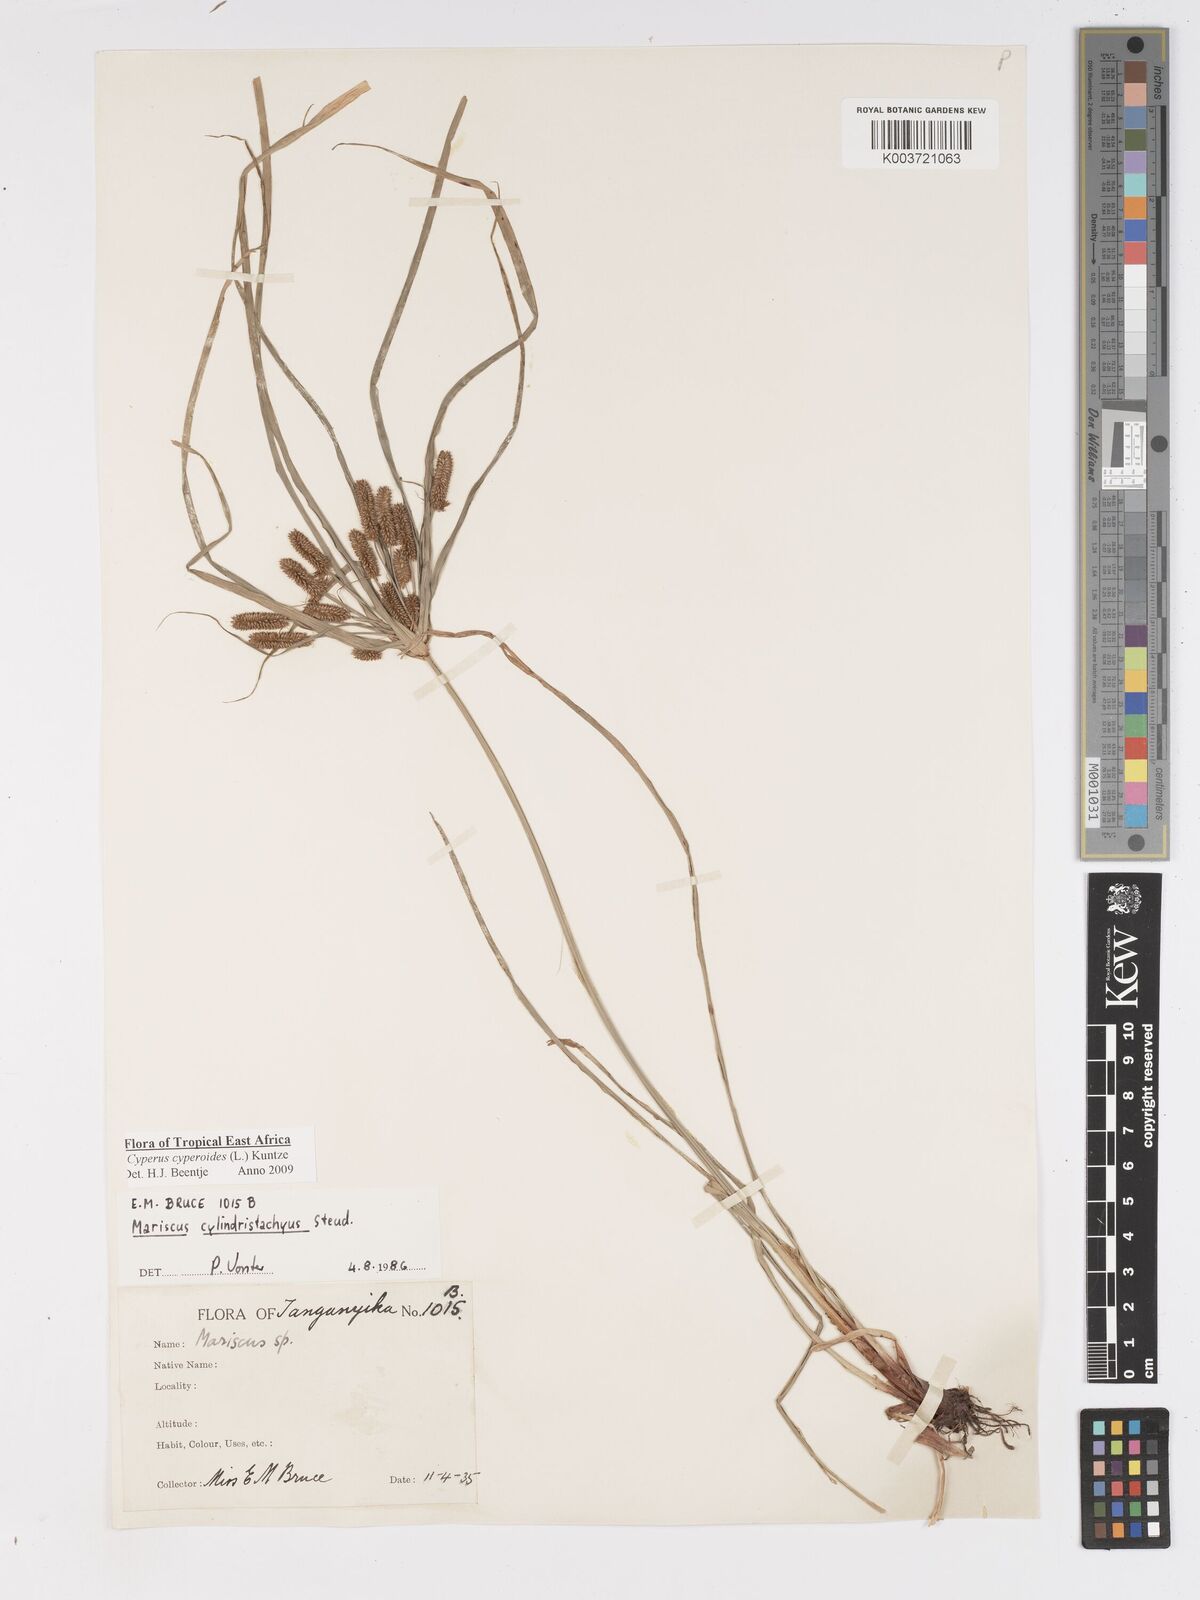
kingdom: Plantae
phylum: Tracheophyta
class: Liliopsida
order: Poales
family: Cyperaceae
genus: Cyperus
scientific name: Cyperus cyperoides
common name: Pacific island flat sedge
